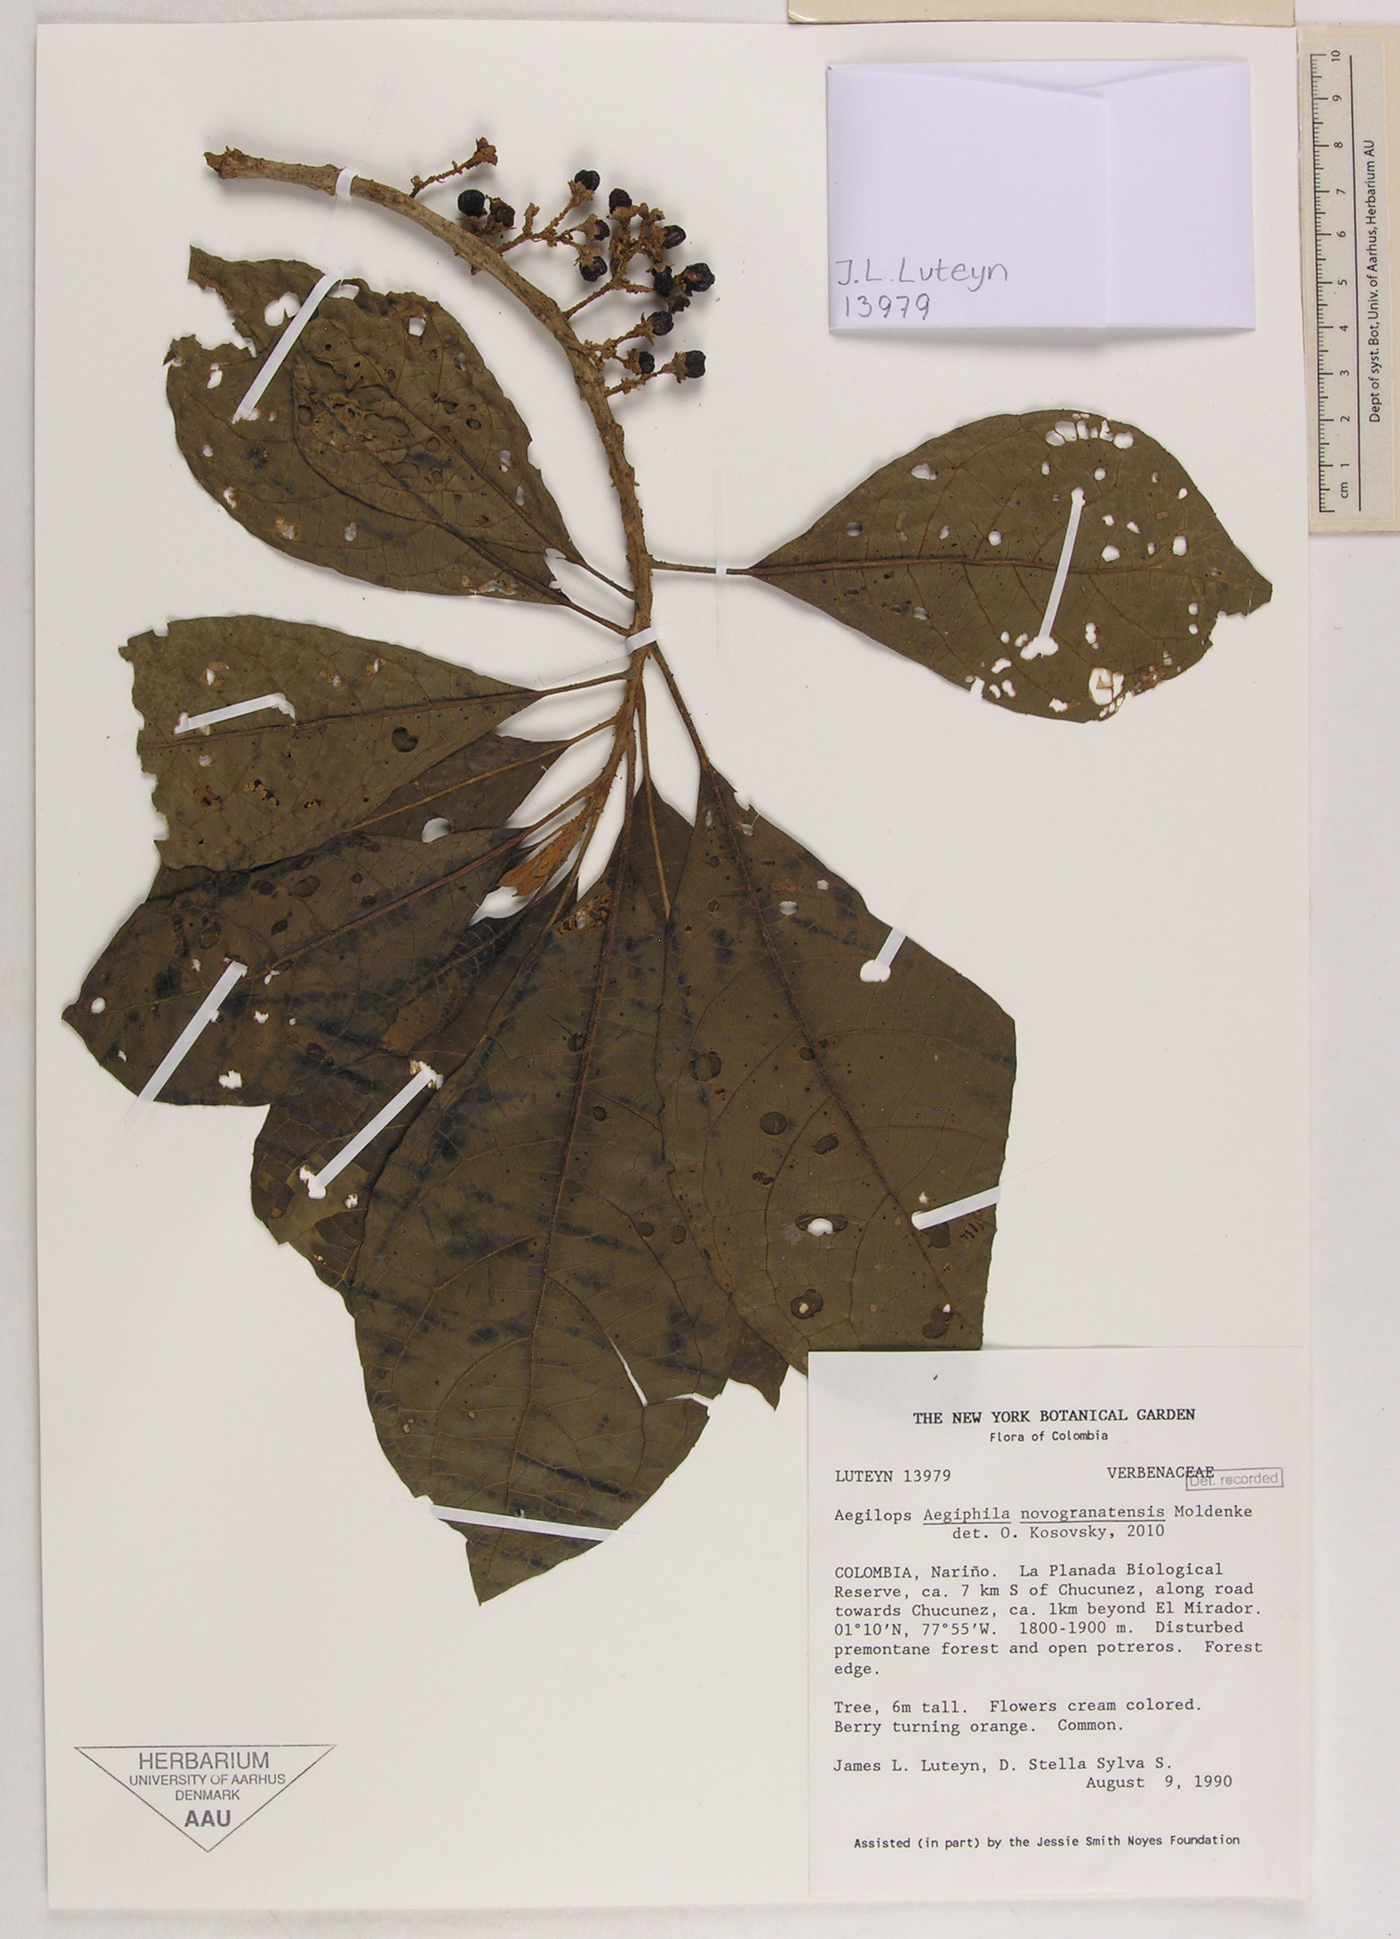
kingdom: Plantae
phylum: Tracheophyta
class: Magnoliopsida
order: Lamiales
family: Lamiaceae
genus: Aegiphila
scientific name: Aegiphila novogranatensis
